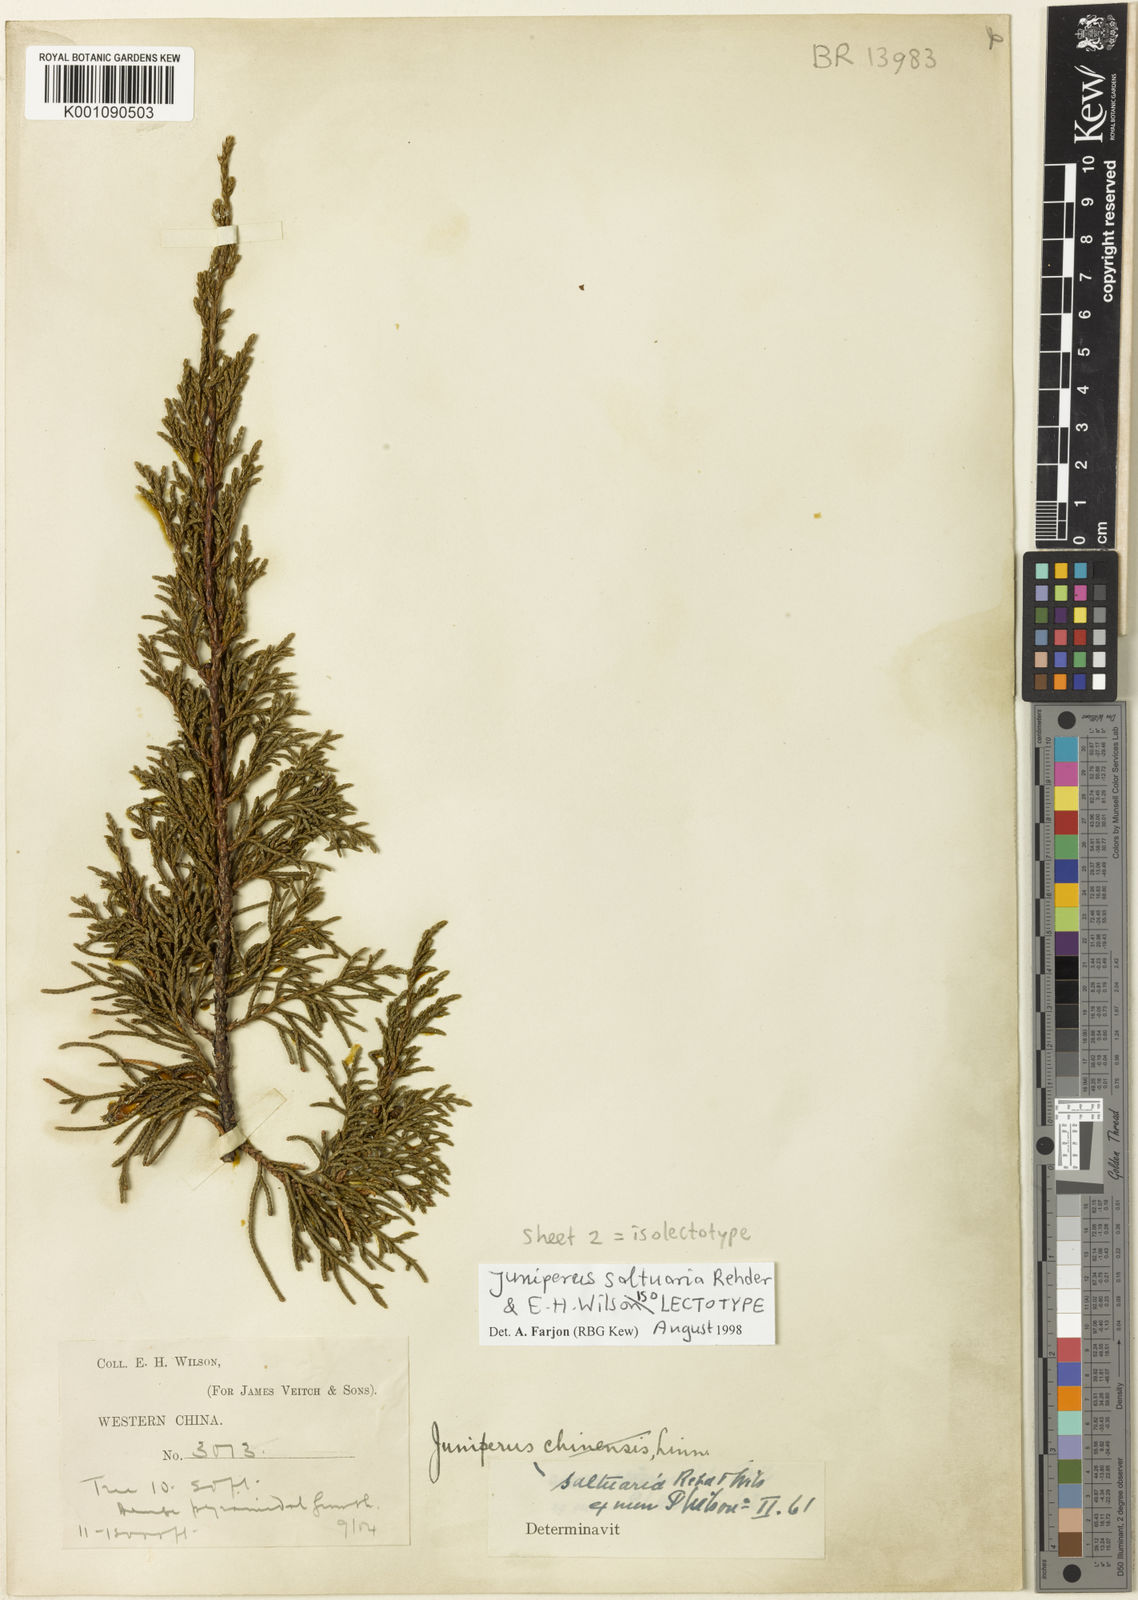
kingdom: Plantae
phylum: Tracheophyta
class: Pinopsida
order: Pinales
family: Cupressaceae
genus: Juniperus
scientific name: Juniperus saltuaria
